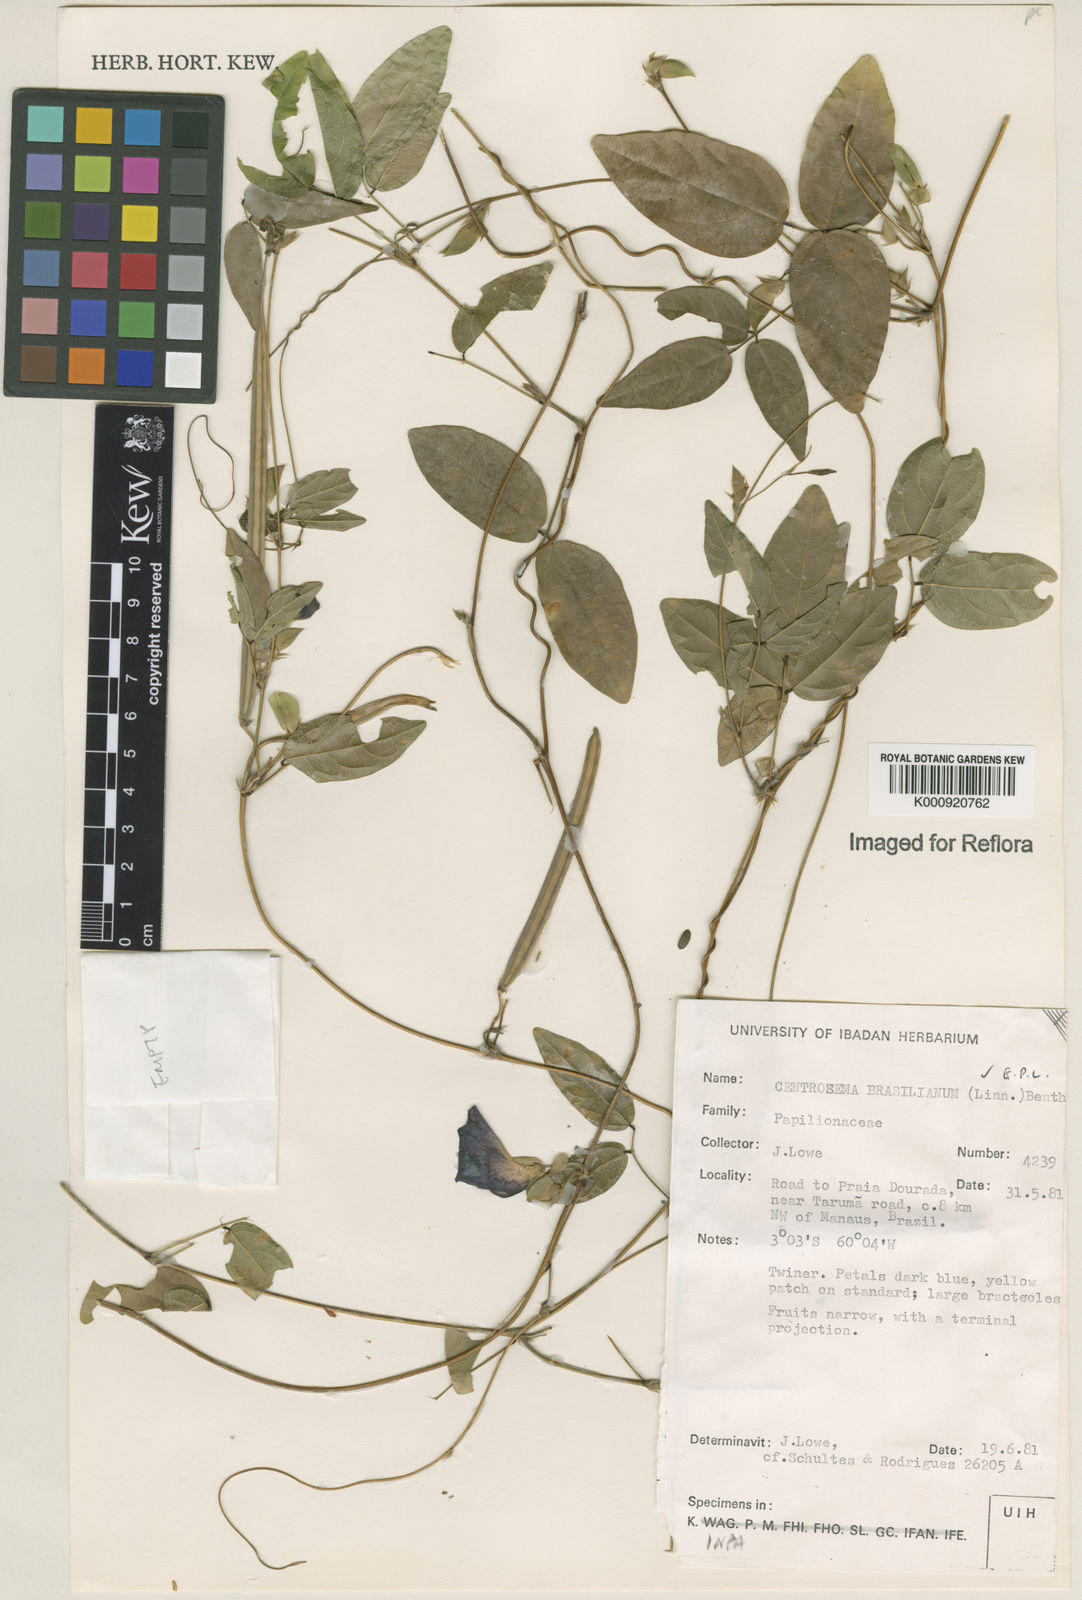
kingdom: Plantae
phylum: Tracheophyta
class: Magnoliopsida
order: Fabales
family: Fabaceae
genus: Centrosema
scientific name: Centrosema brasilianum
